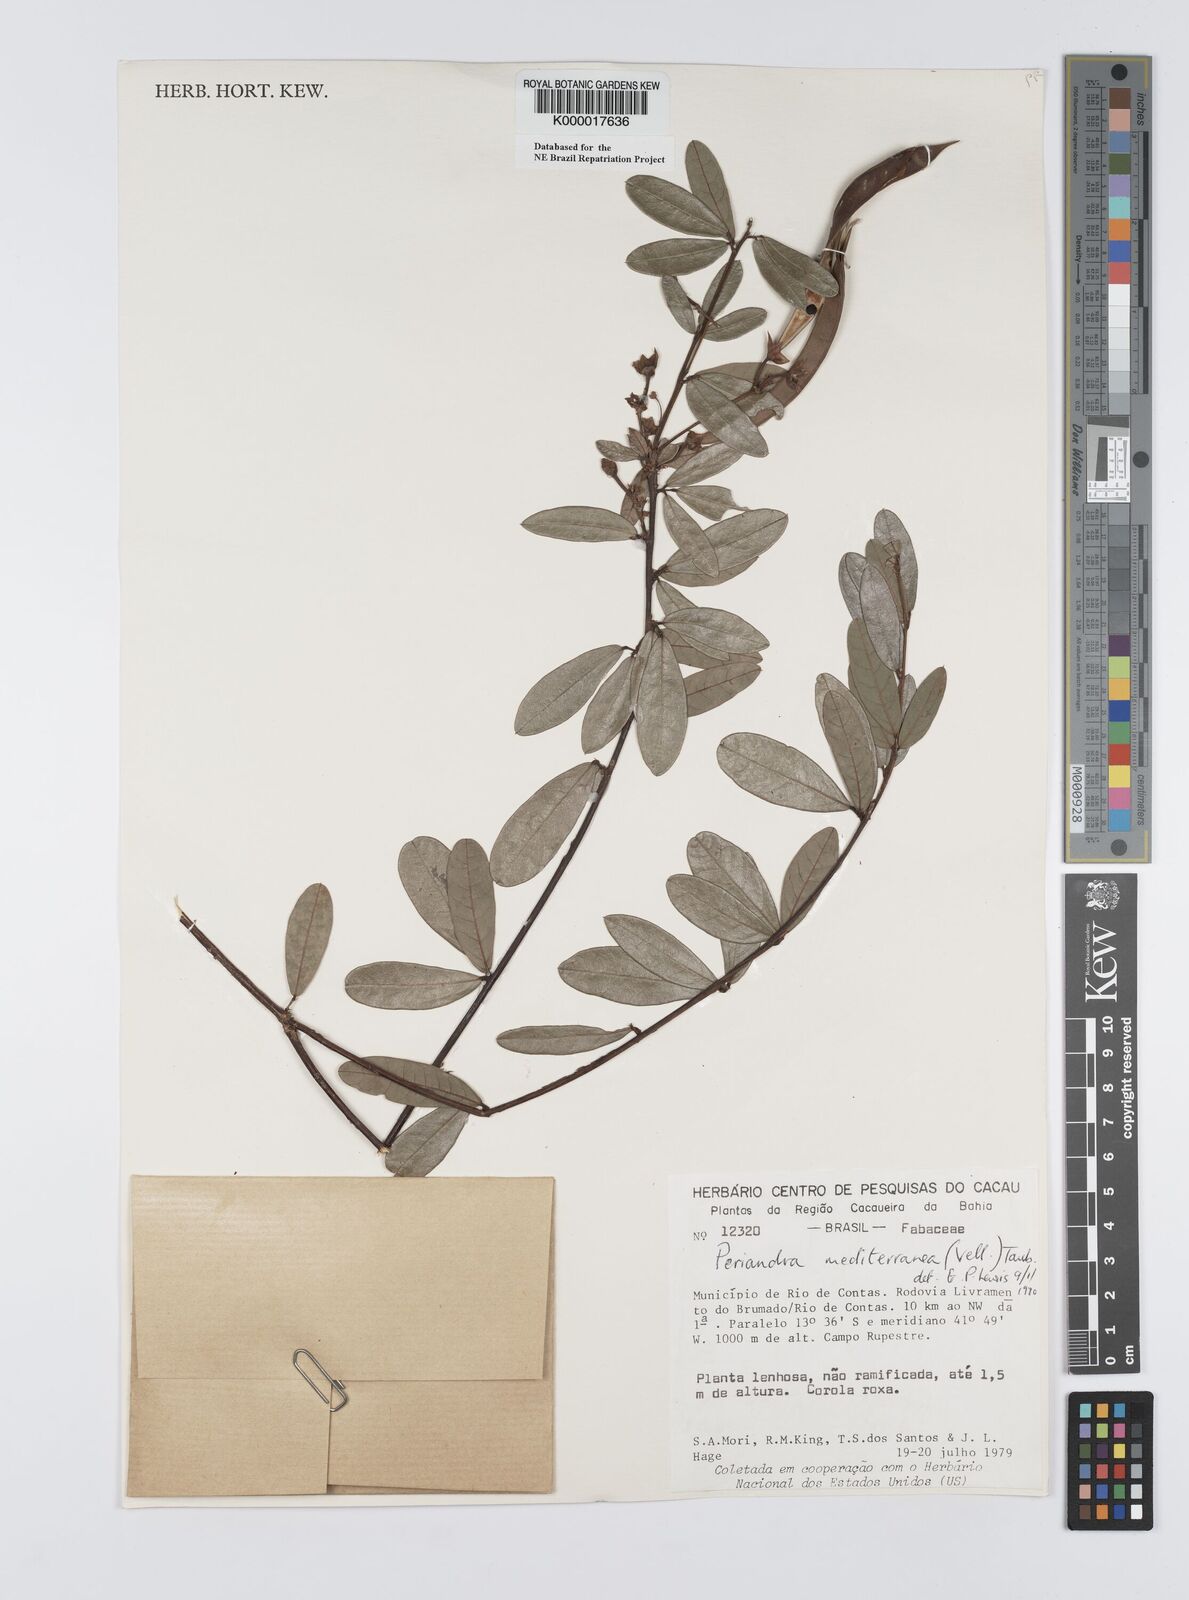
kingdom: Plantae
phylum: Tracheophyta
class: Magnoliopsida
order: Fabales
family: Fabaceae
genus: Periandra
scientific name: Periandra mediterranea
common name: Brazilian licorice
